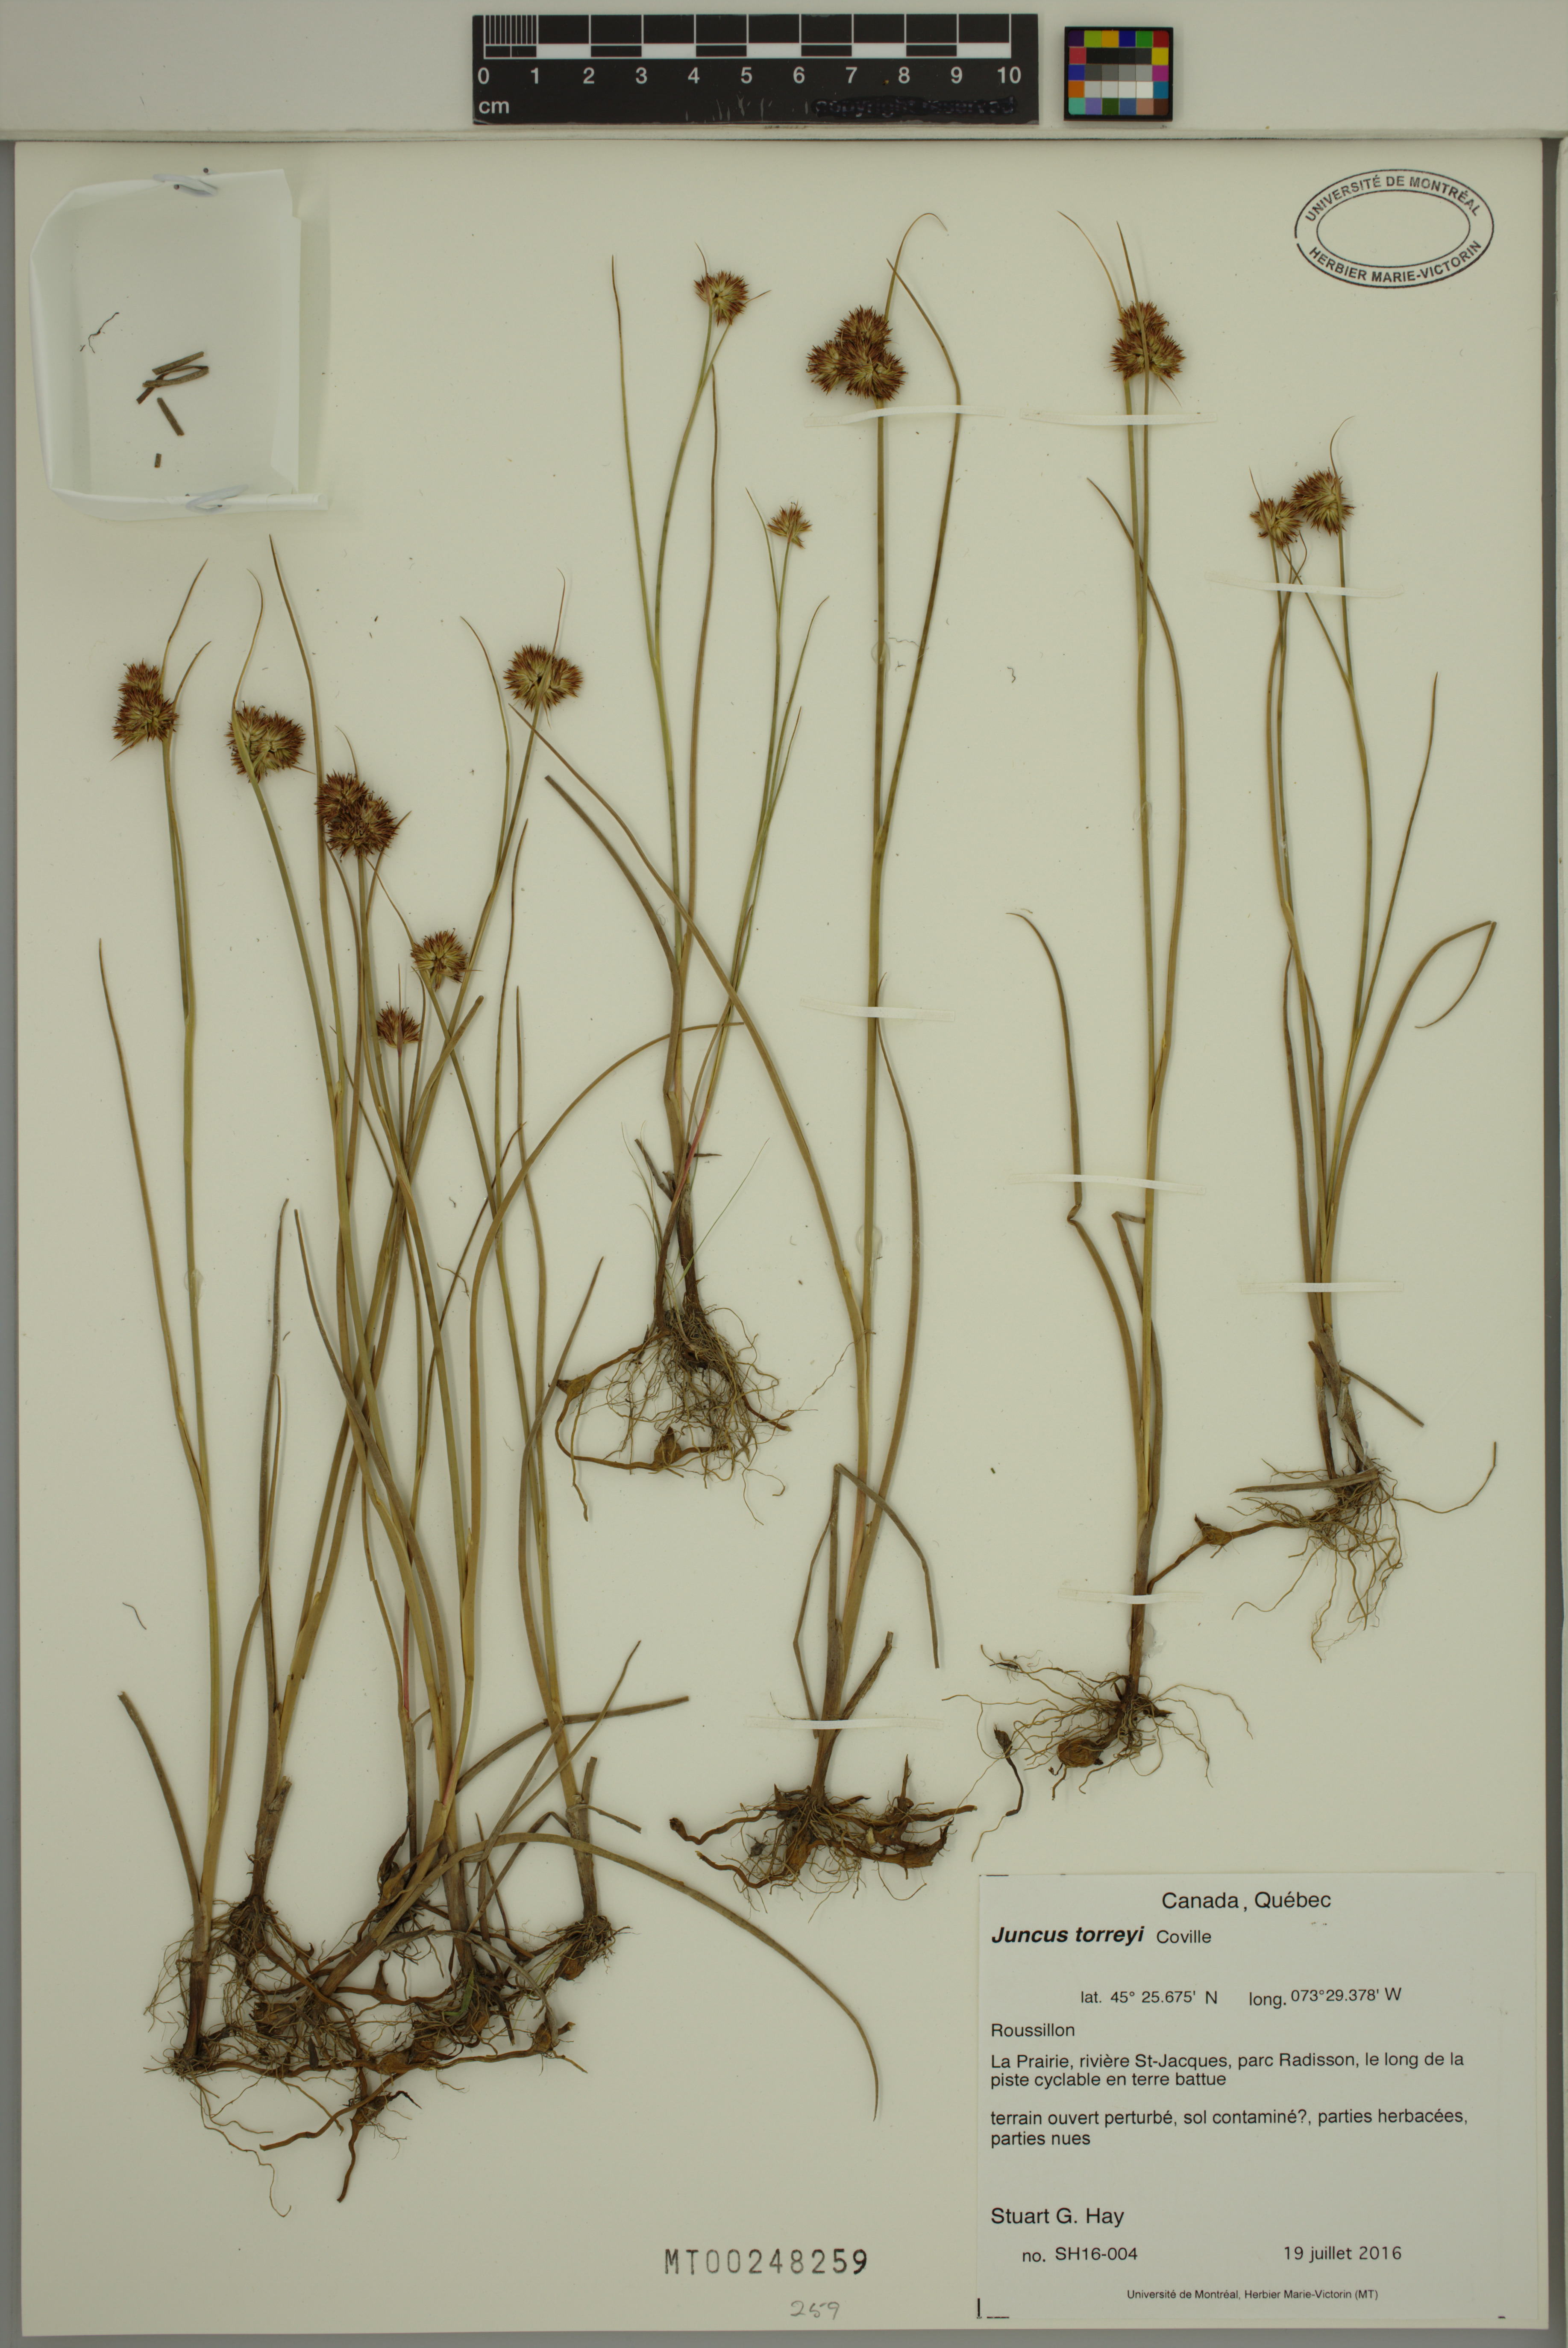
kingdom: Plantae
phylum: Tracheophyta
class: Liliopsida
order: Poales
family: Juncaceae
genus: Juncus
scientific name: Juncus torreyi
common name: Torrey's rush
